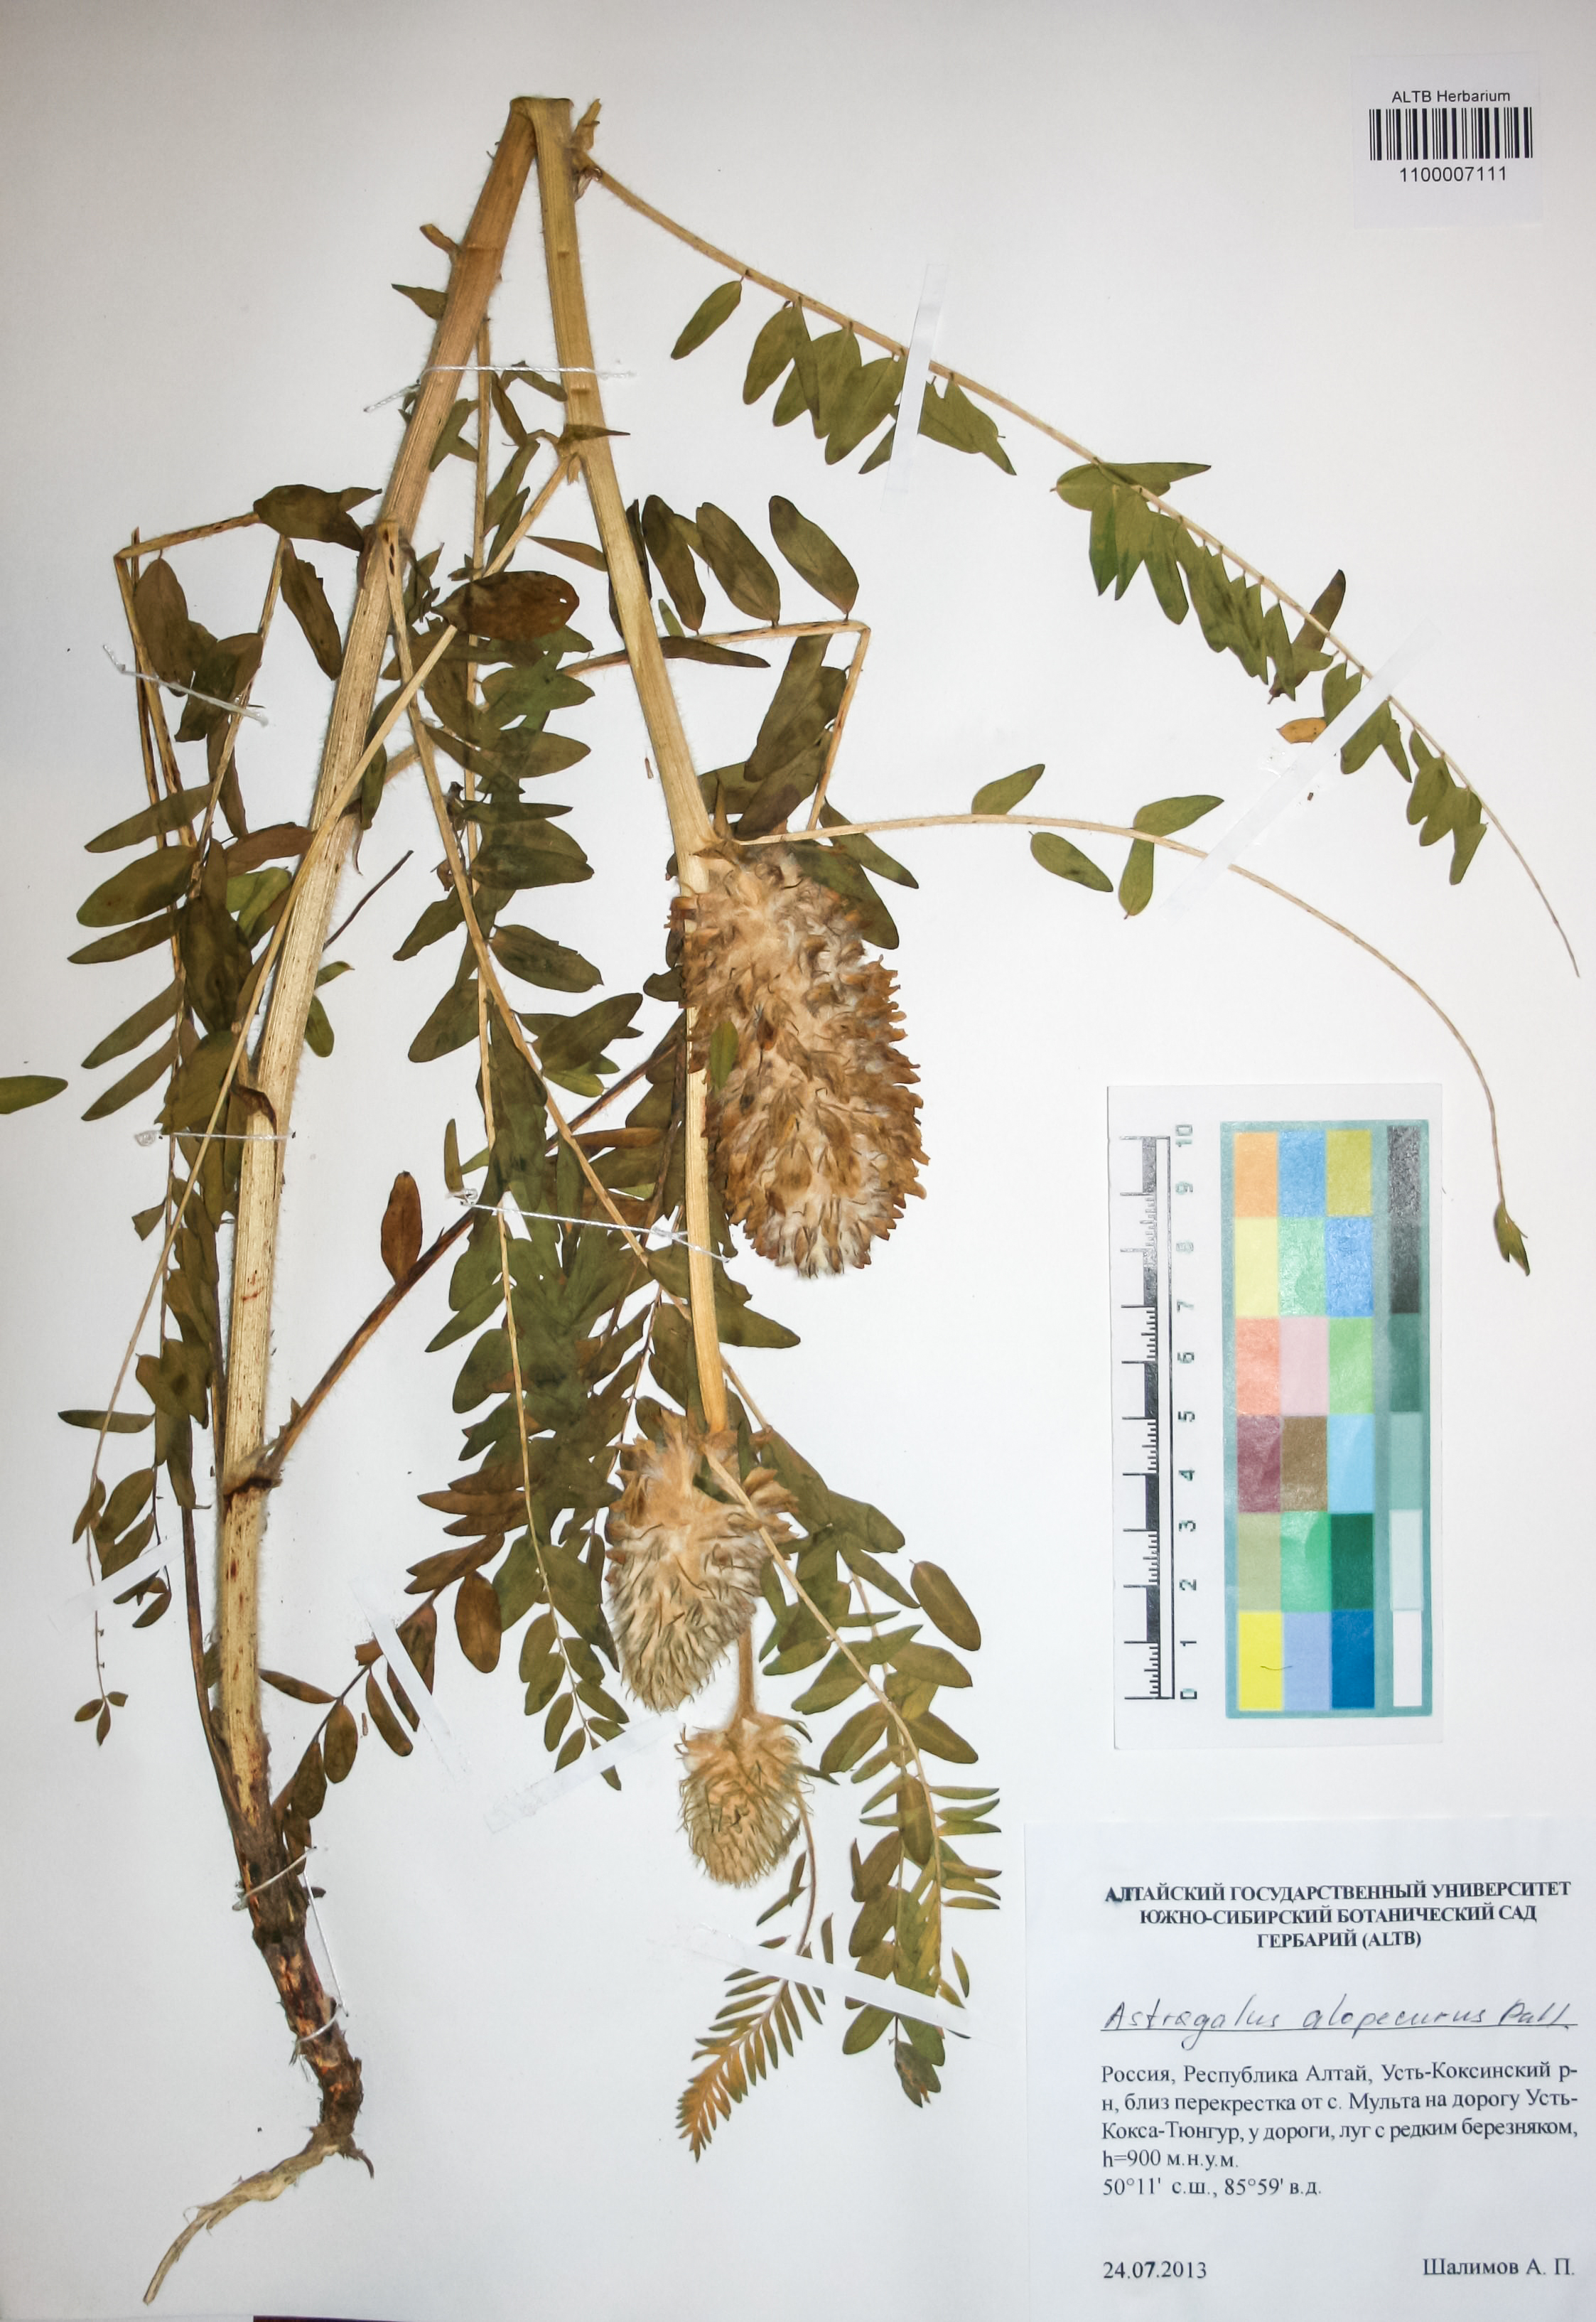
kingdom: Plantae
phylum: Tracheophyta
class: Magnoliopsida
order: Fabales
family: Fabaceae
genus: Astragalus
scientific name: Astragalus alopecurus
